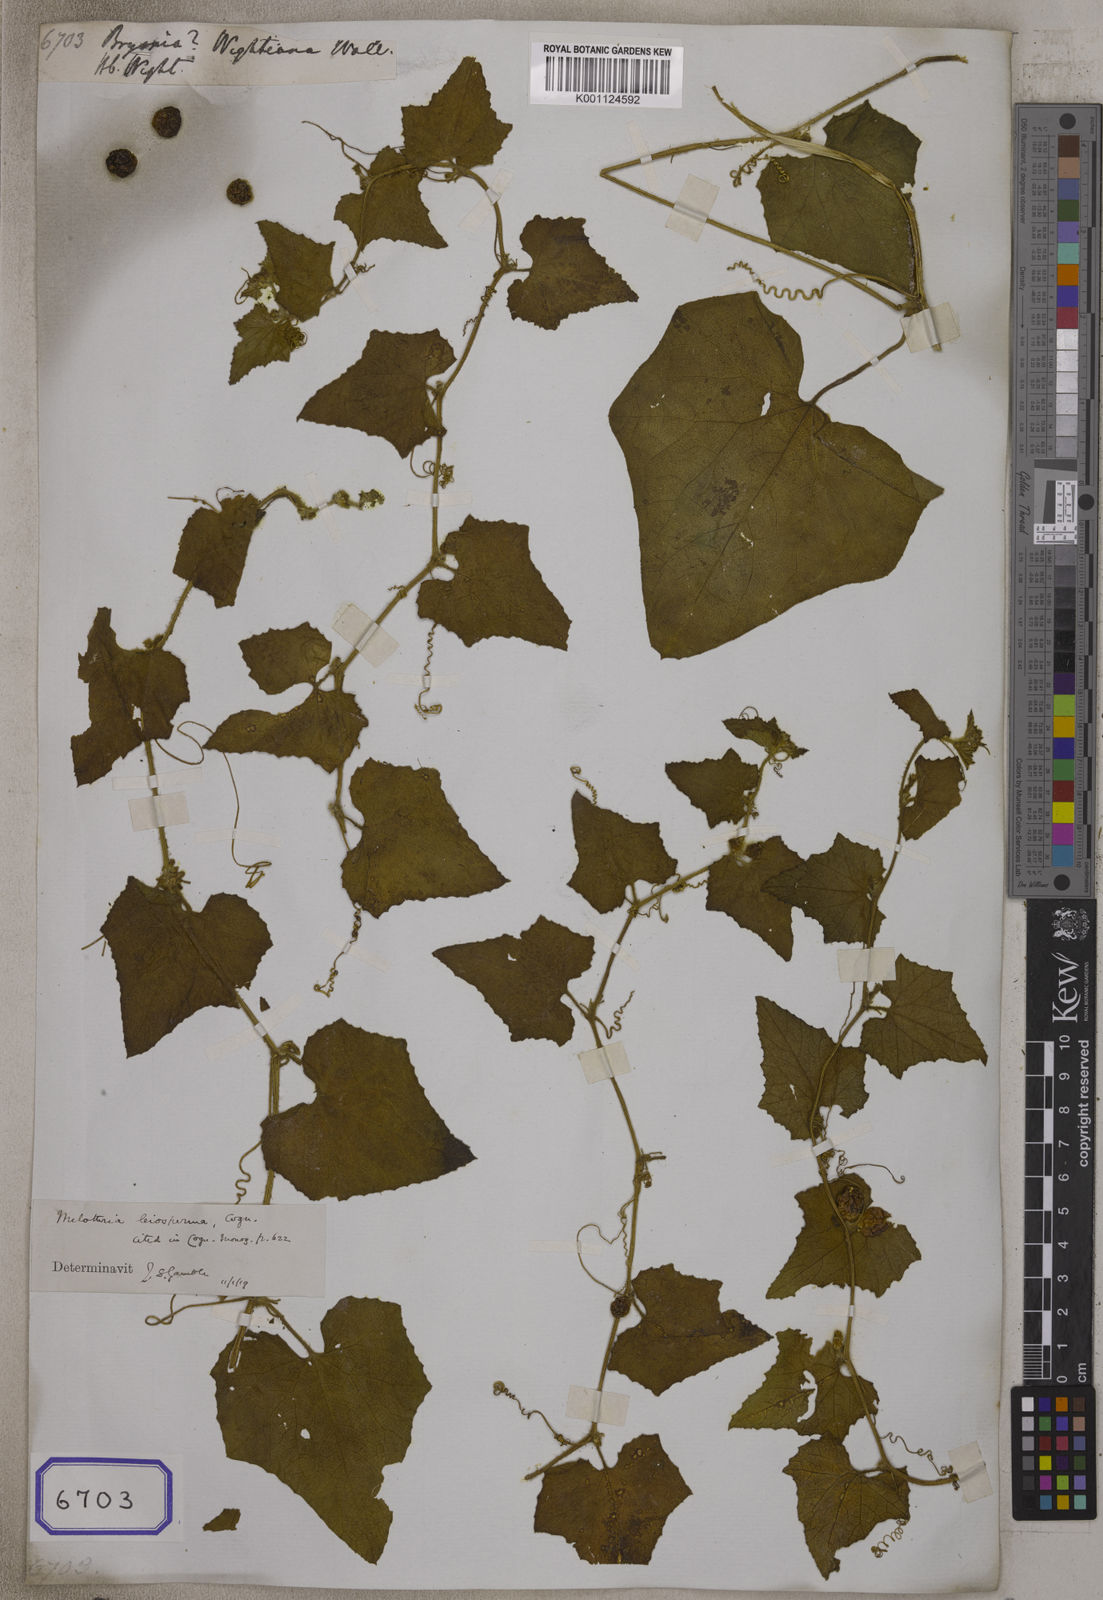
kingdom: Plantae
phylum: Tracheophyta
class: Magnoliopsida
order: Cucurbitales
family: Cucurbitaceae
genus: Cucumis
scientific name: Cucumis leiospermus
